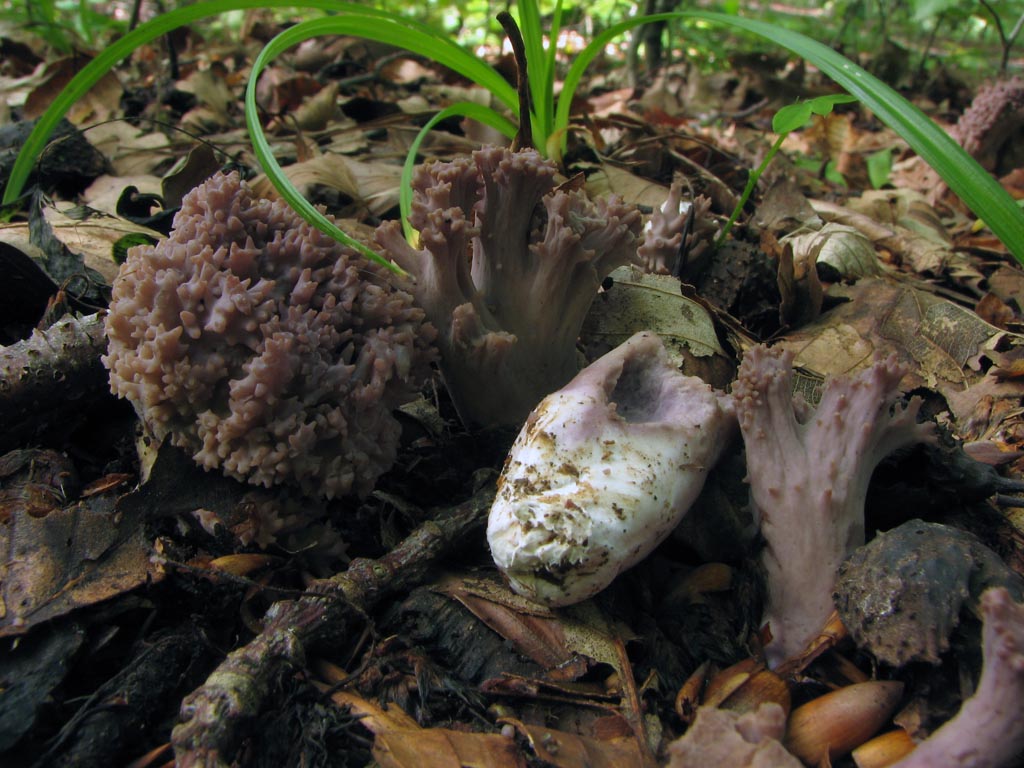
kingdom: Fungi
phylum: Basidiomycota
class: Agaricomycetes
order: Gomphales
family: Gomphaceae
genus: Ramaria
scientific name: Ramaria fumigata
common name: violet koralsvamp
